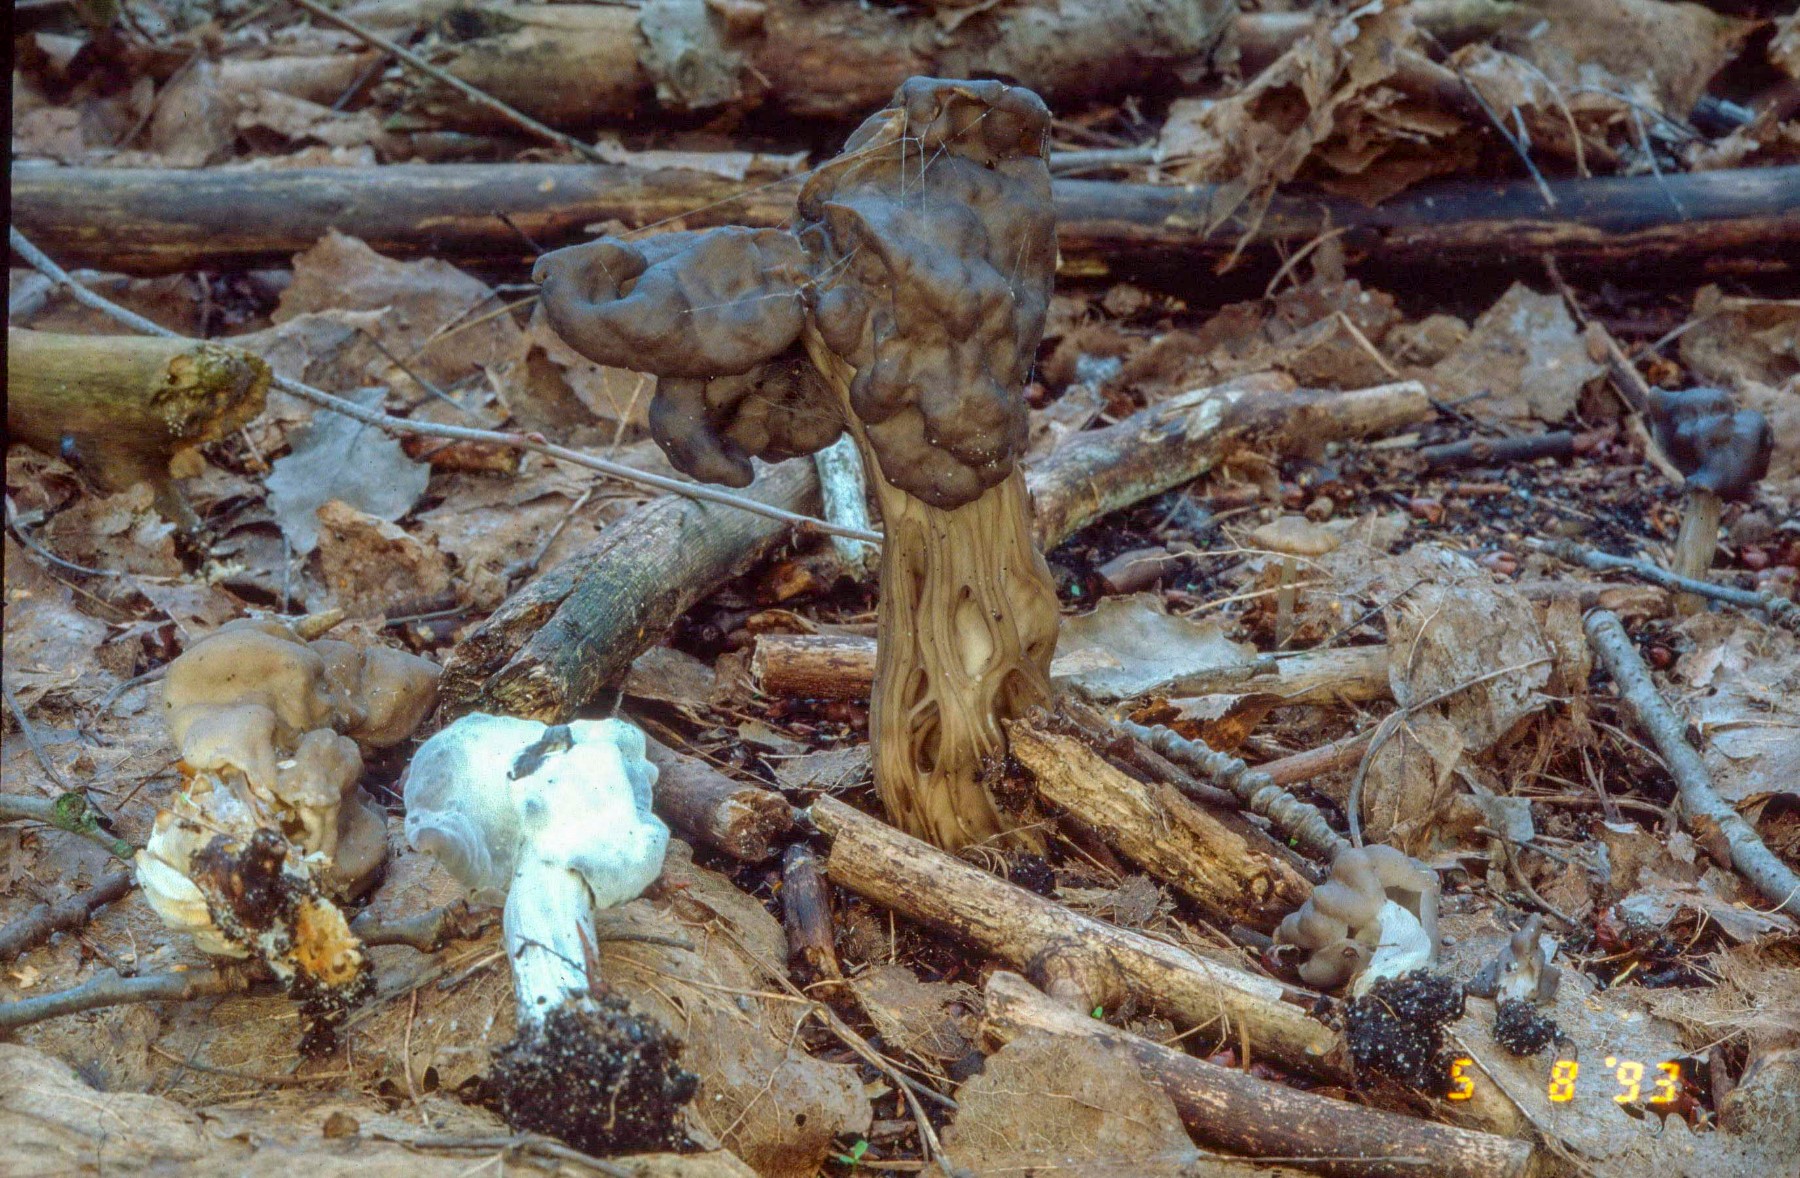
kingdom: Fungi
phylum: Ascomycota
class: Sordariomycetes
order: Hypocreales
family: Hypocreaceae
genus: Hypomyces
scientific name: Hypomyces cervinus
